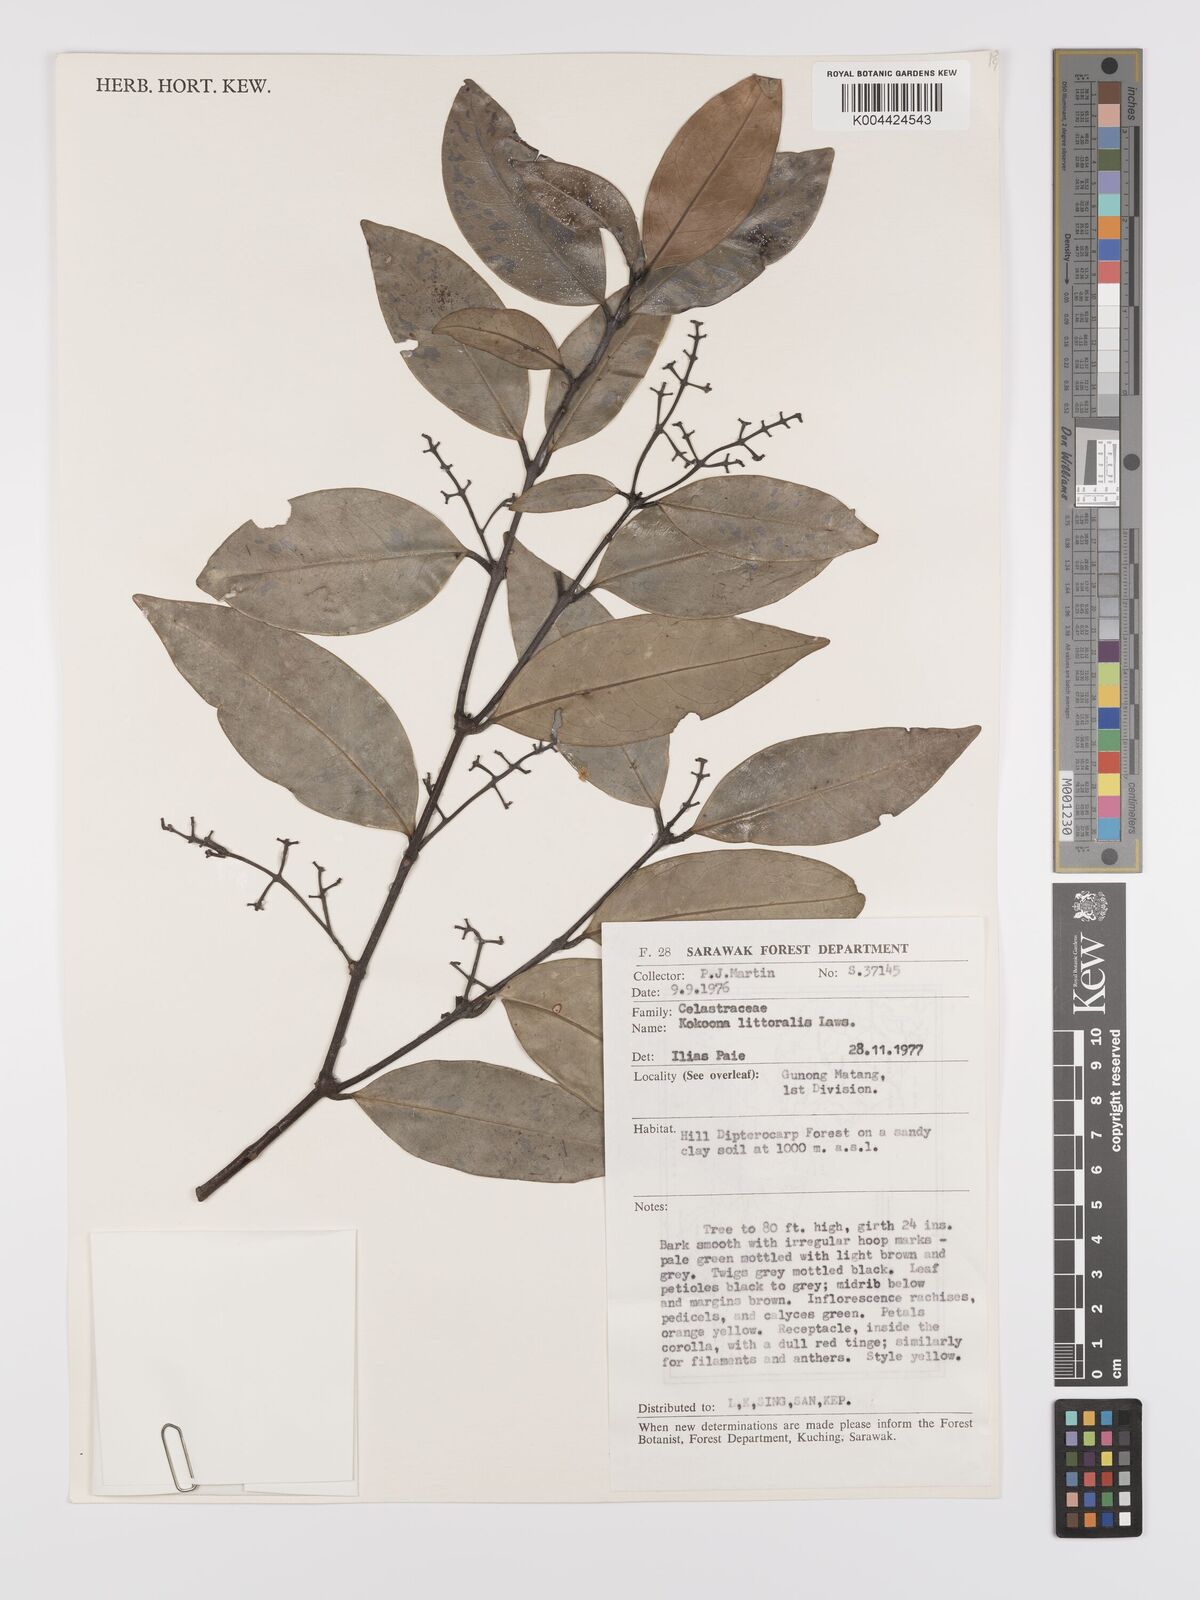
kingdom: Plantae
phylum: Tracheophyta
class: Magnoliopsida
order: Celastrales
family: Celastraceae
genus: Kokoona
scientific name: Kokoona littoralis
